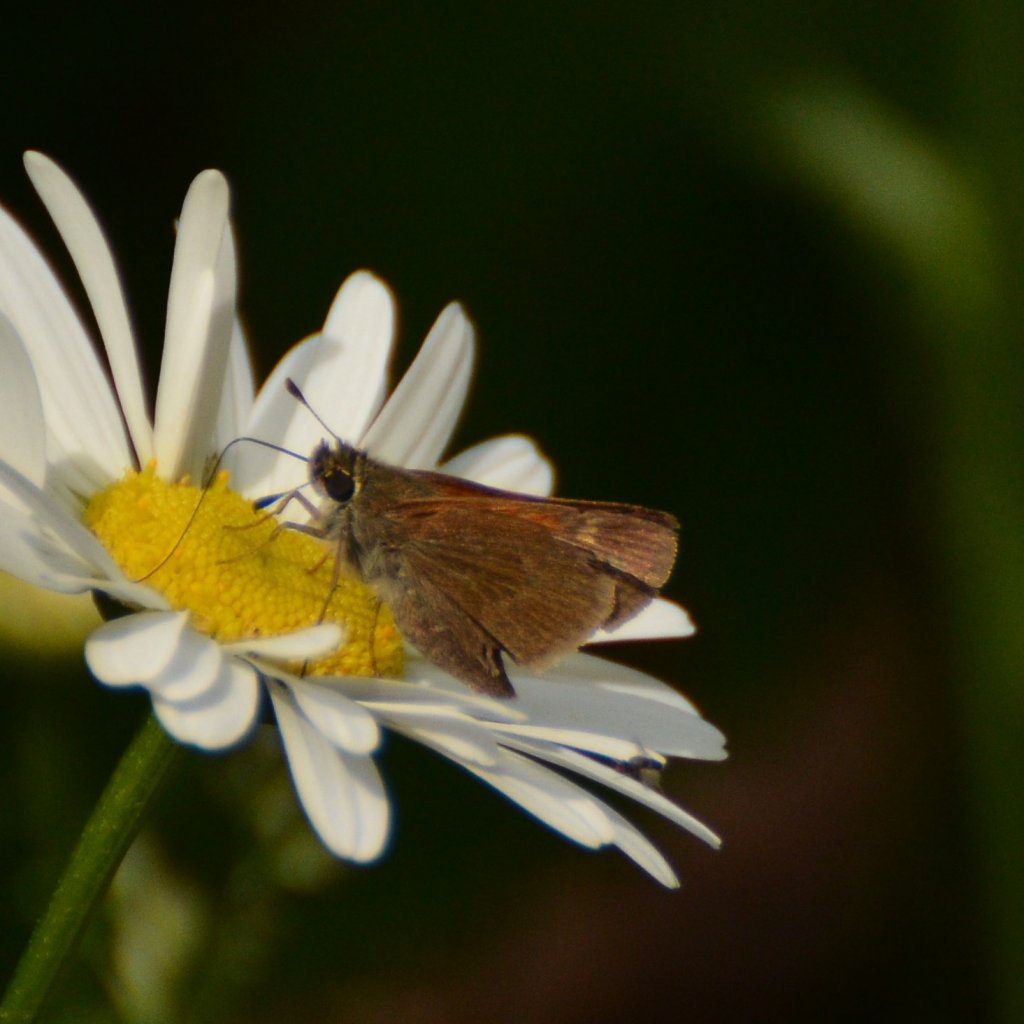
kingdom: Animalia
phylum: Arthropoda
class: Insecta
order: Lepidoptera
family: Hesperiidae
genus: Polites
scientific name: Polites themistocles
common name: Tawny-edged Skipper
